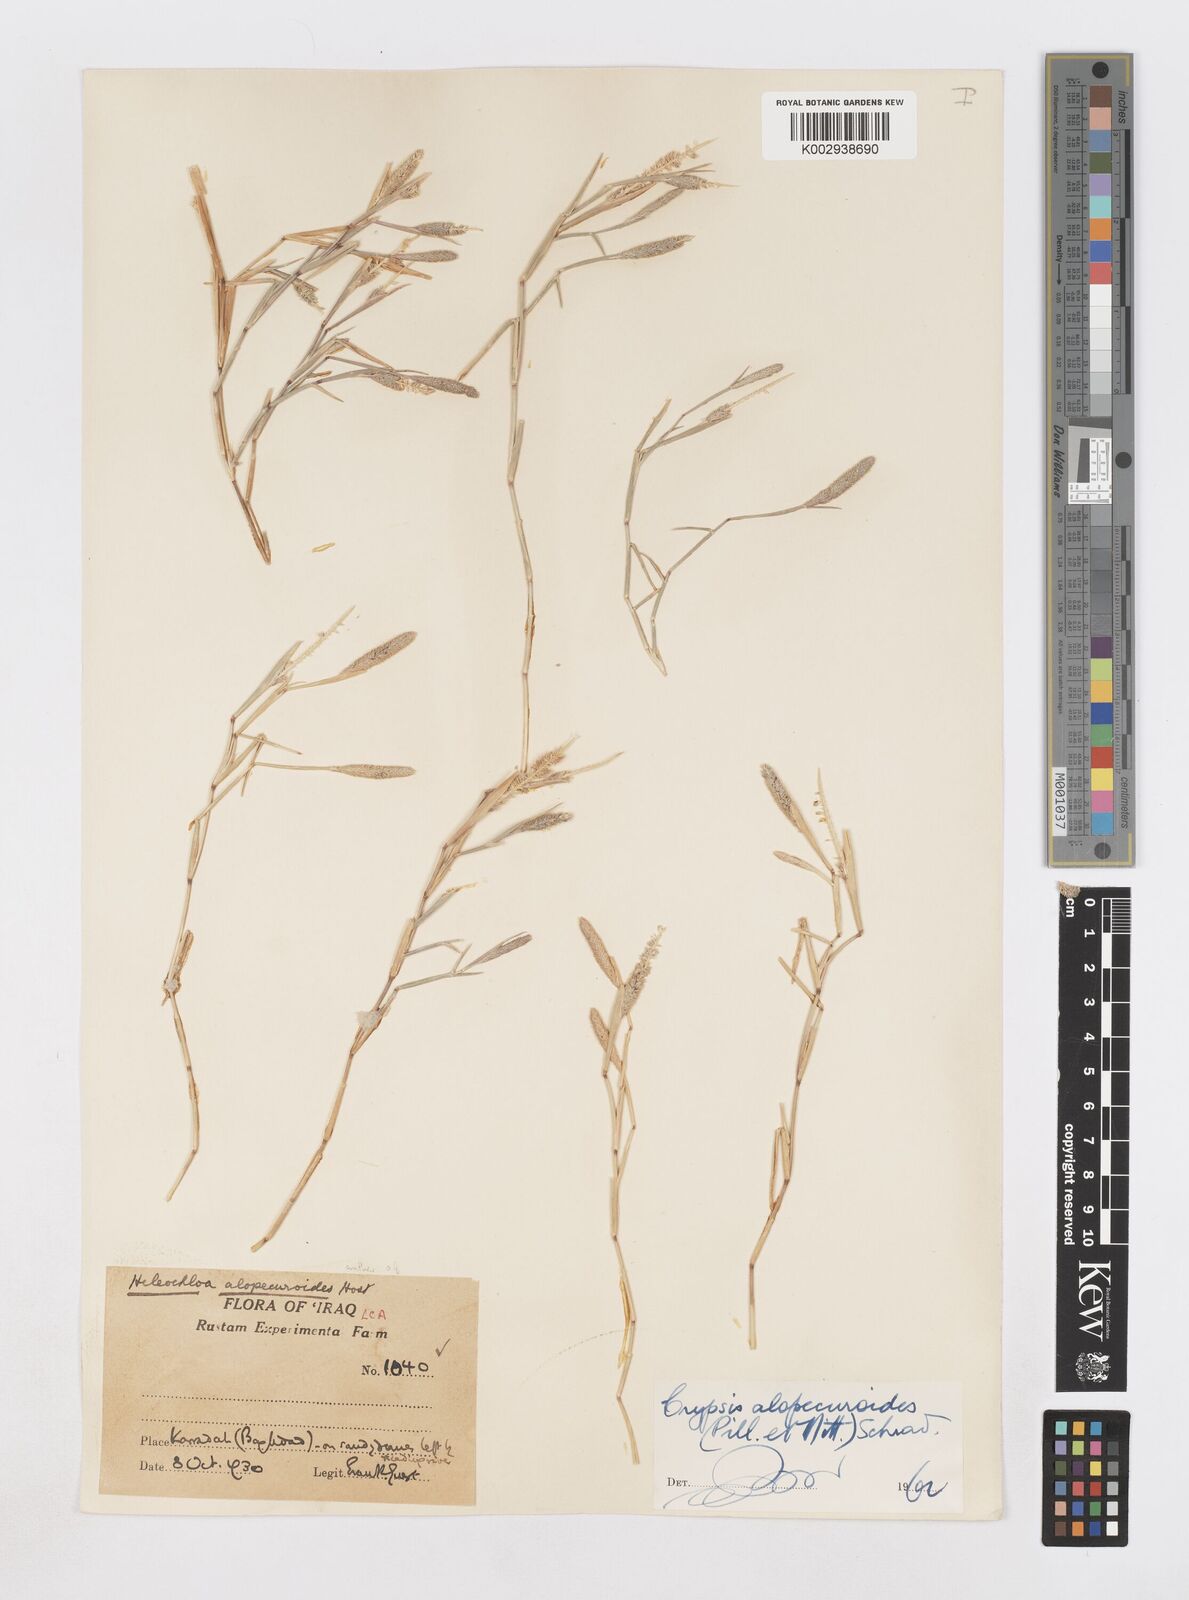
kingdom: Plantae
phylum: Tracheophyta
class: Liliopsida
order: Poales
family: Poaceae
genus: Sporobolus
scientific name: Sporobolus alopecuroides
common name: Foxtail pricklegrass
